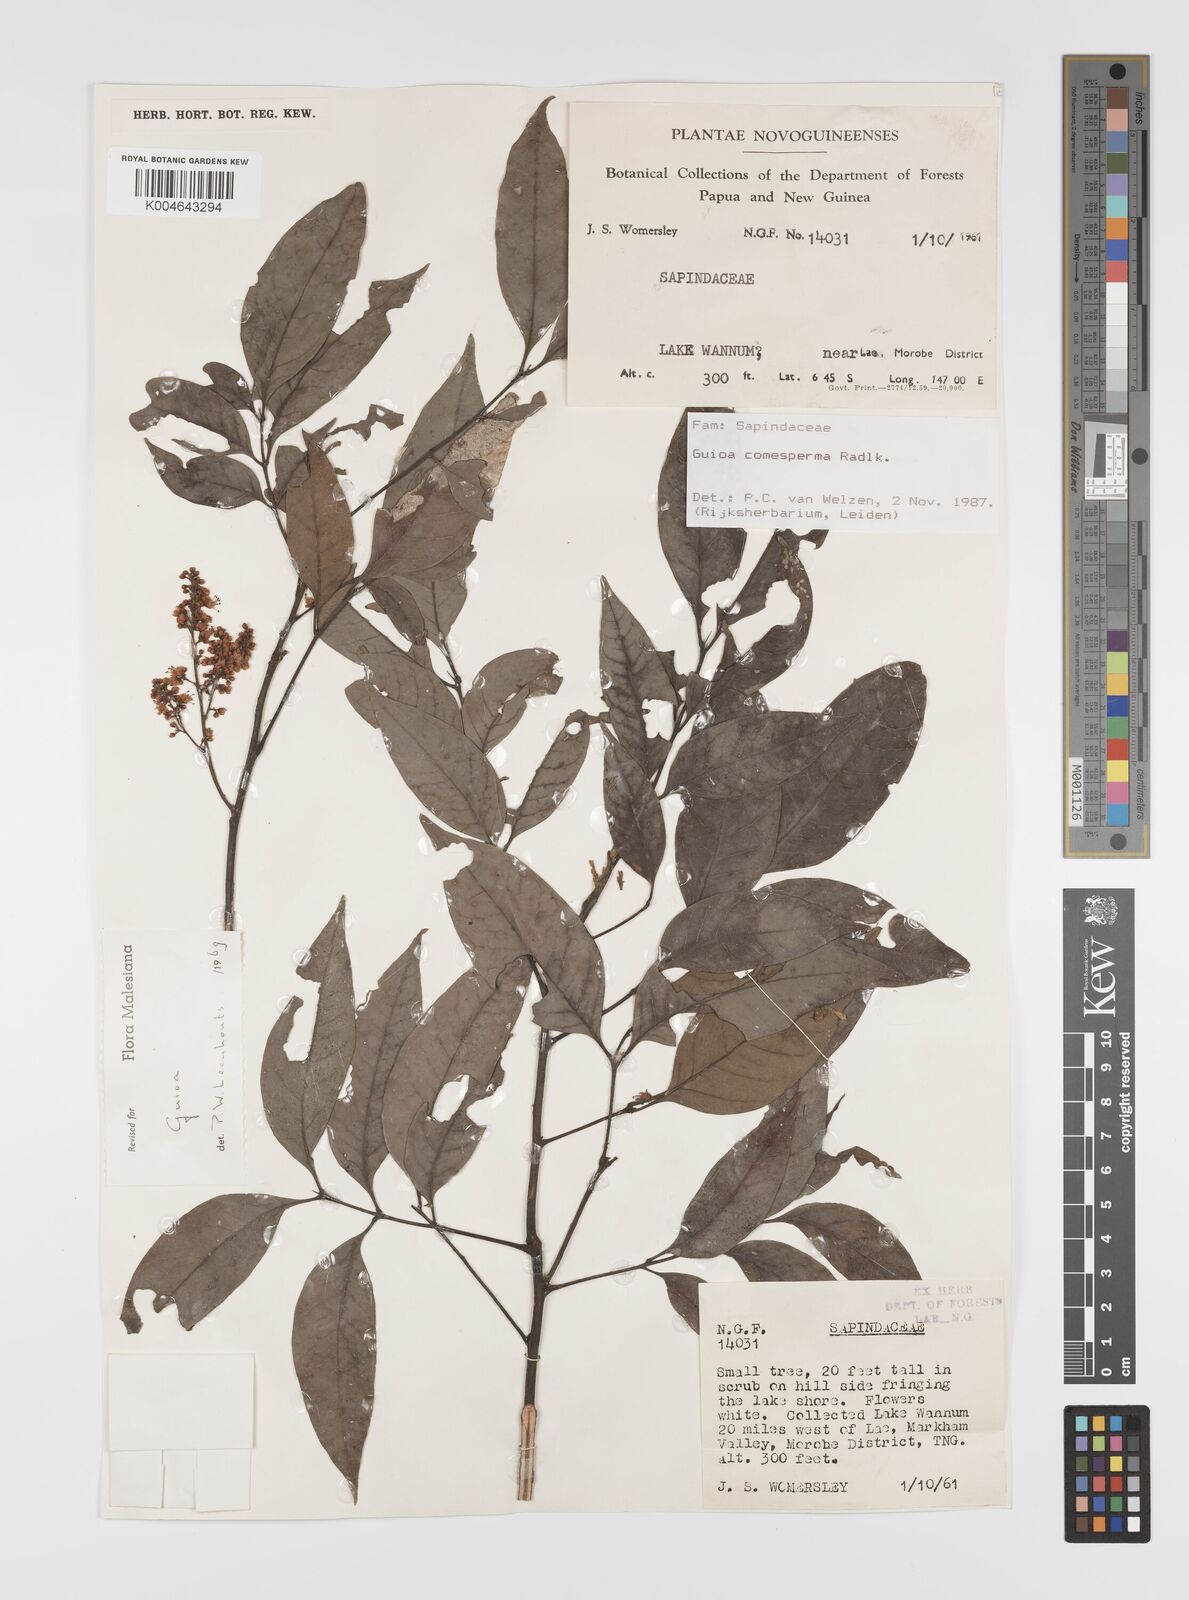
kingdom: Plantae
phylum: Tracheophyta
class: Magnoliopsida
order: Sapindales
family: Sapindaceae
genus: Guioa
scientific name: Guioa comesperma
